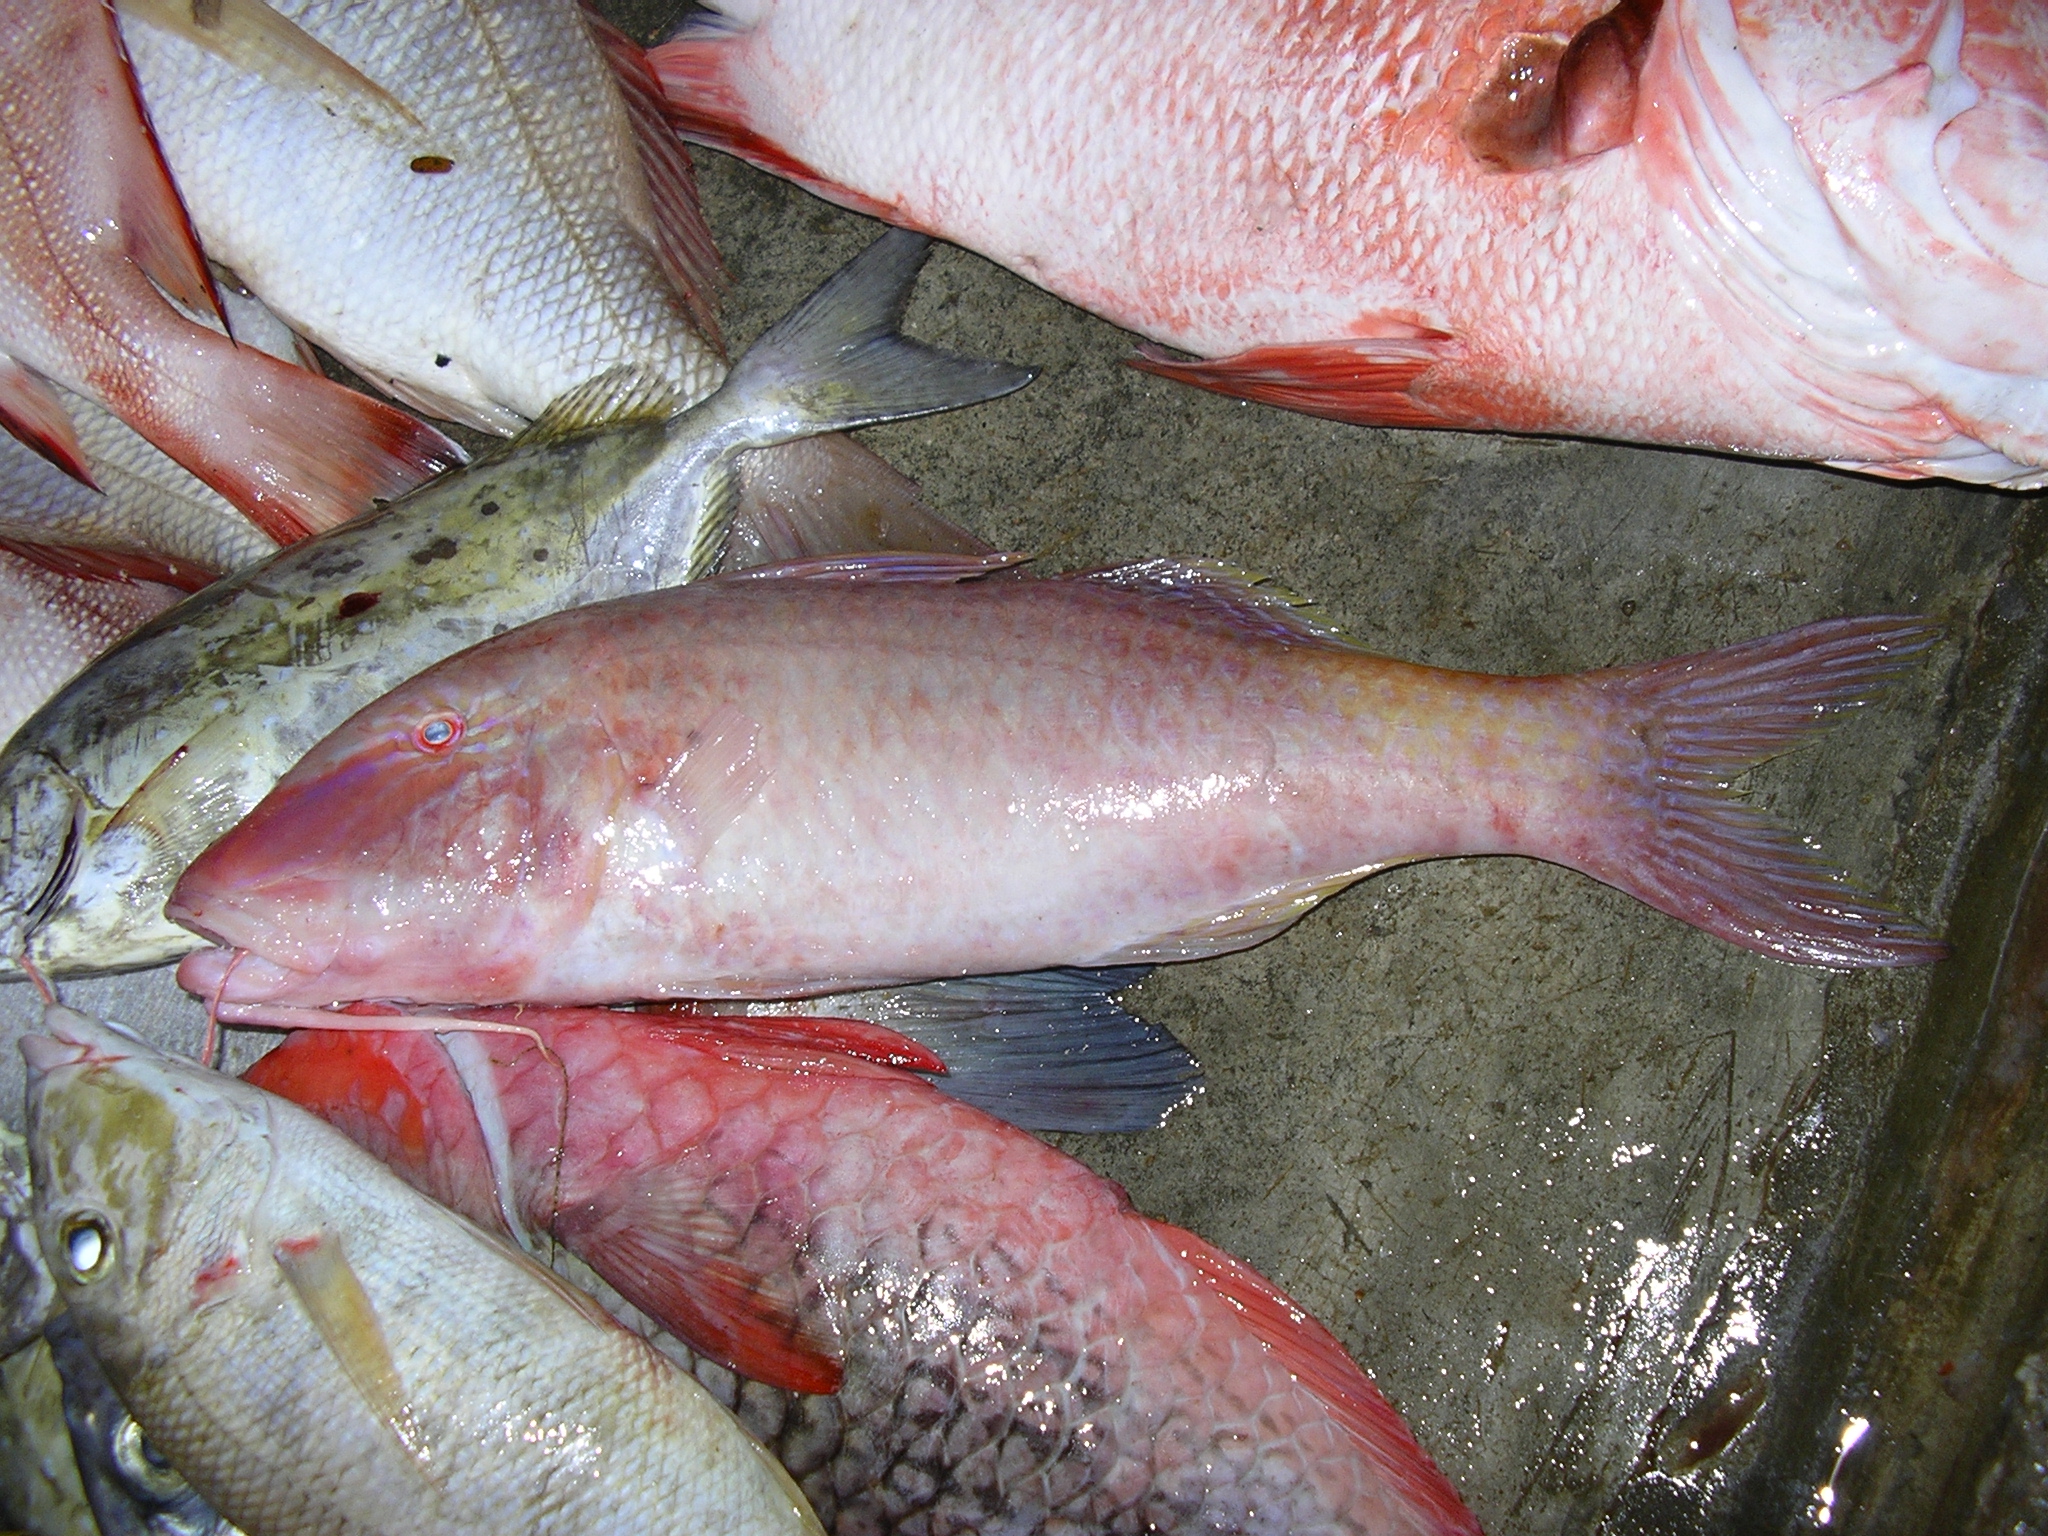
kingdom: Animalia
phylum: Chordata
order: Perciformes
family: Mullidae
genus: Parupeneus
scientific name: Parupeneus cyclostomus
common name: Goldsaddle goatfish
